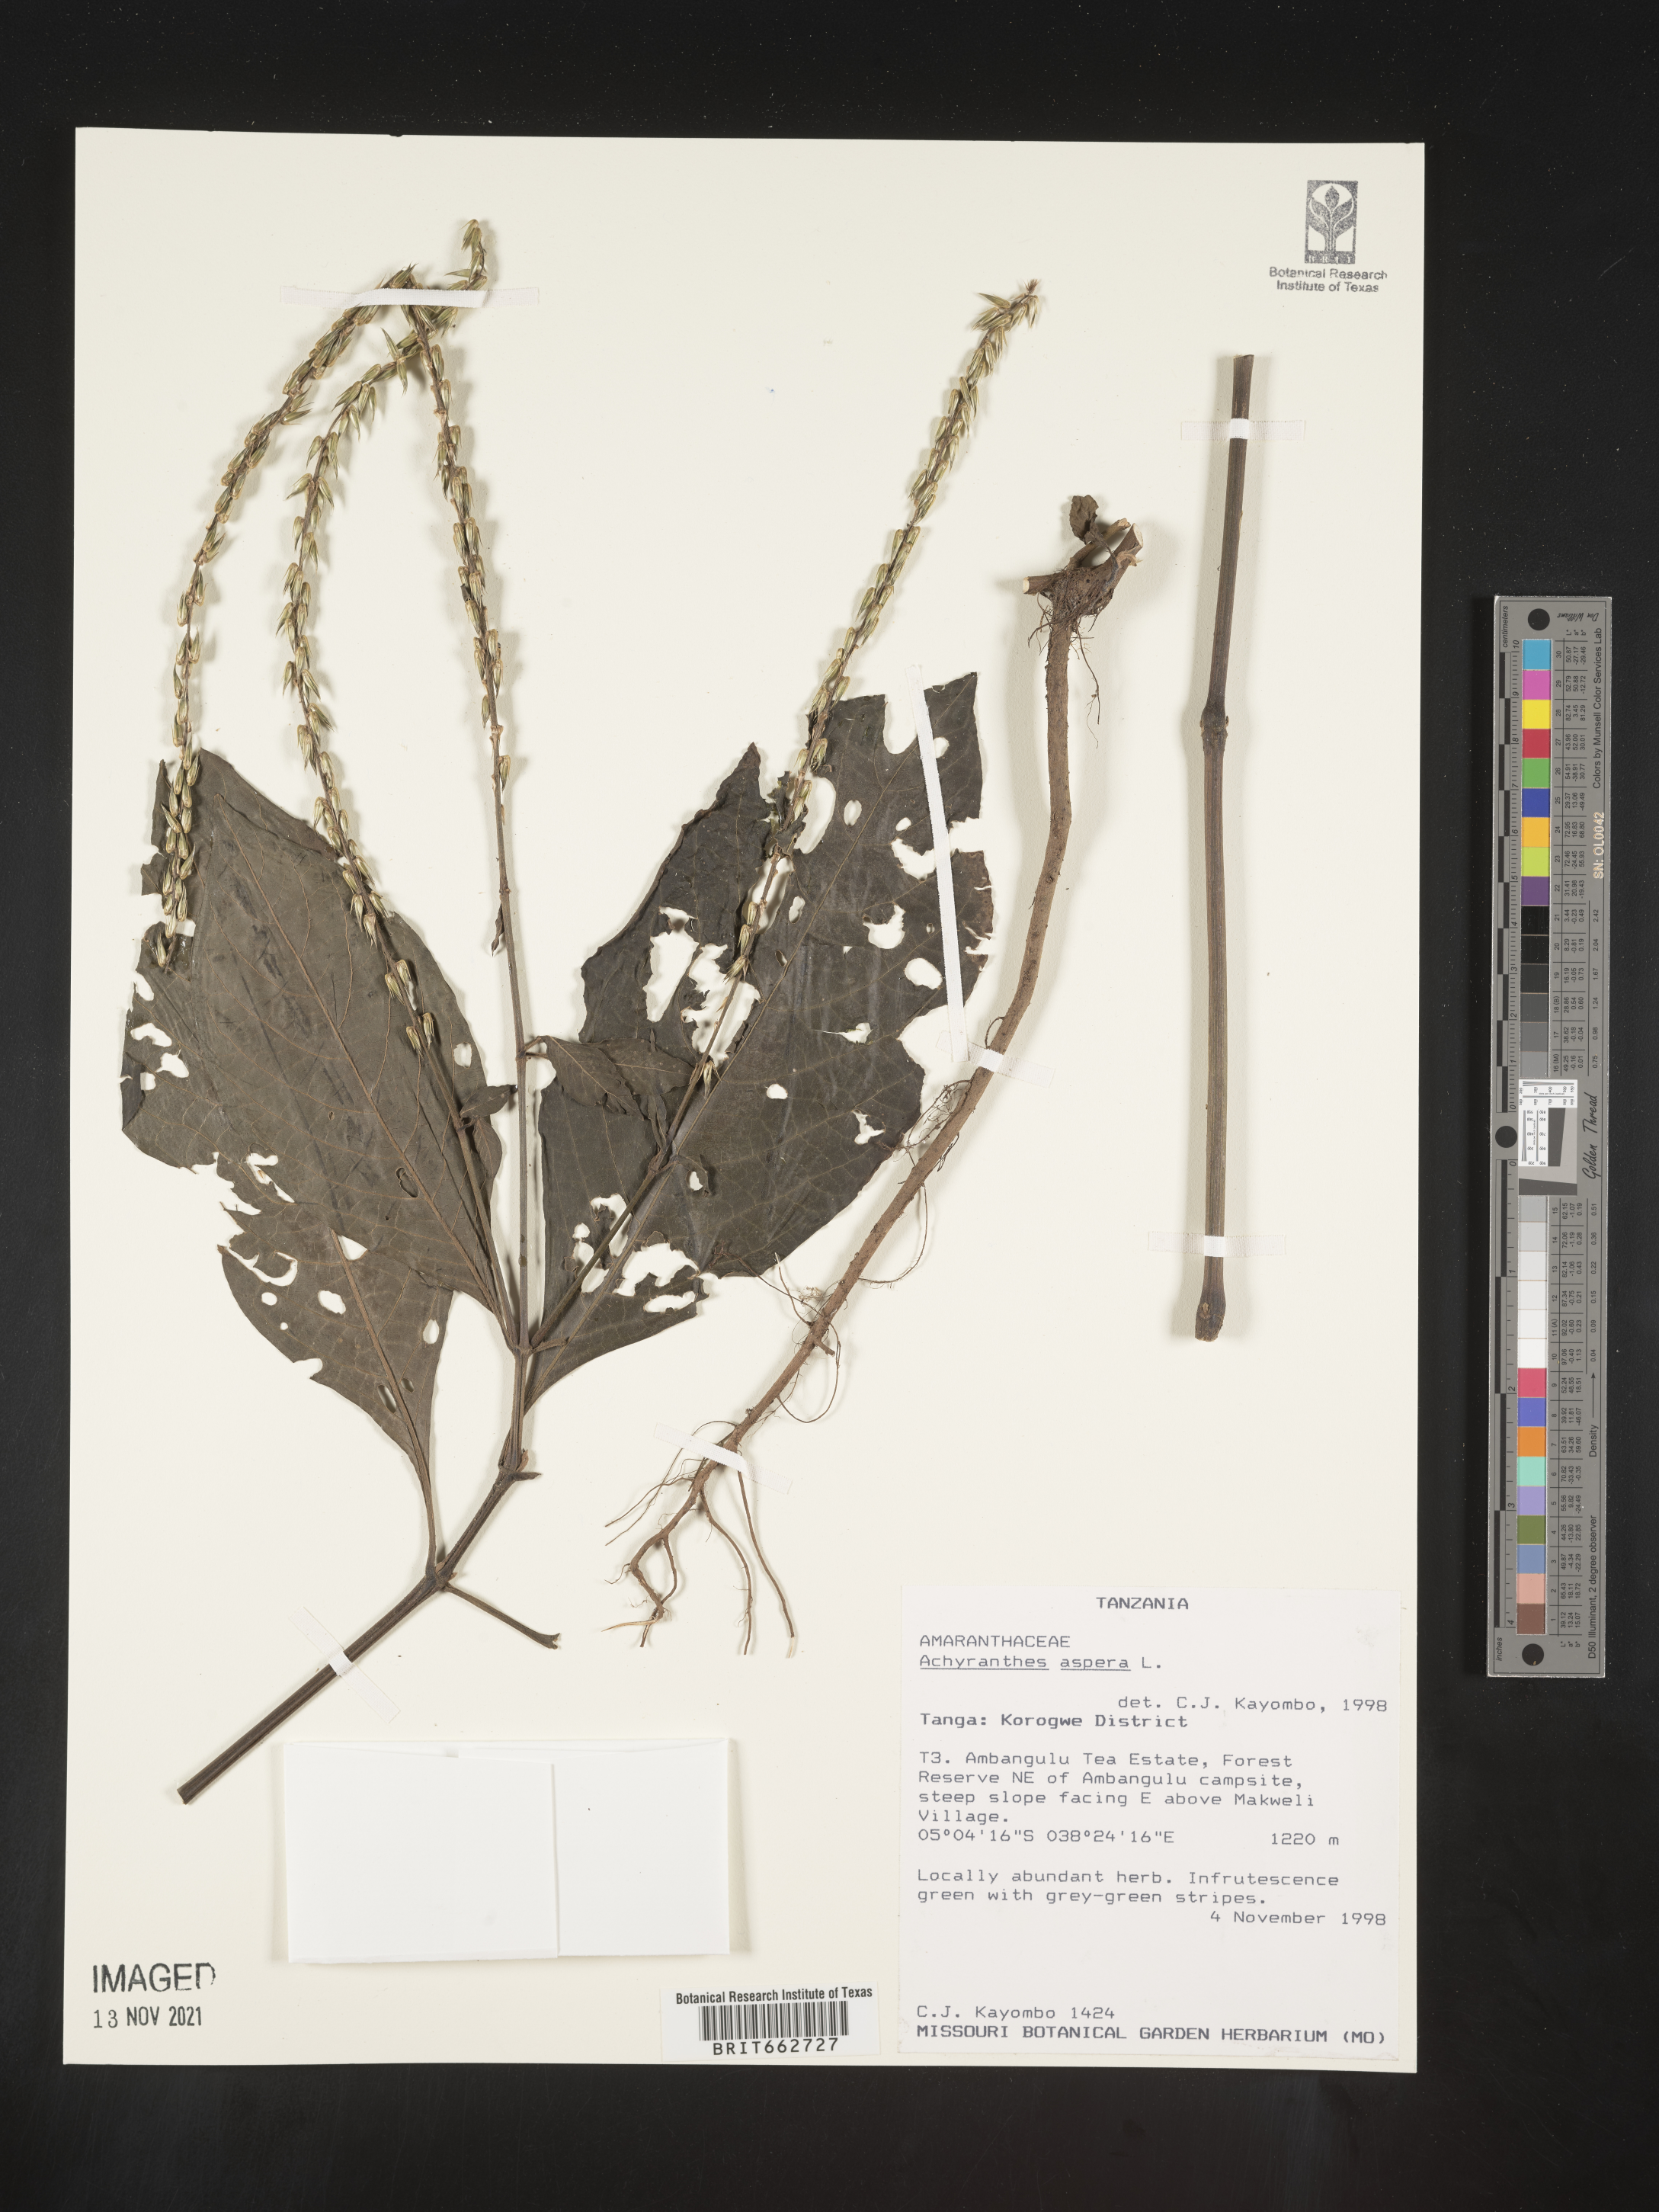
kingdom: Plantae
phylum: Tracheophyta
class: Magnoliopsida
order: Caryophyllales
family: Amaranthaceae
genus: Achyranthes
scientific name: Achyranthes
